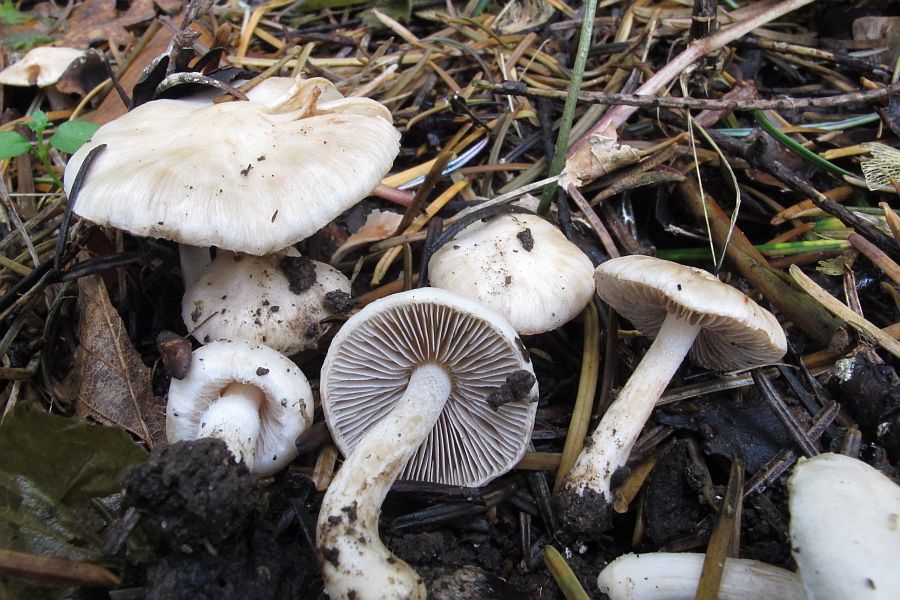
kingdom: Fungi
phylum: Basidiomycota
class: Agaricomycetes
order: Agaricales
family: Inocybaceae
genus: Inocybe
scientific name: Inocybe
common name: almindelig trævlhat
